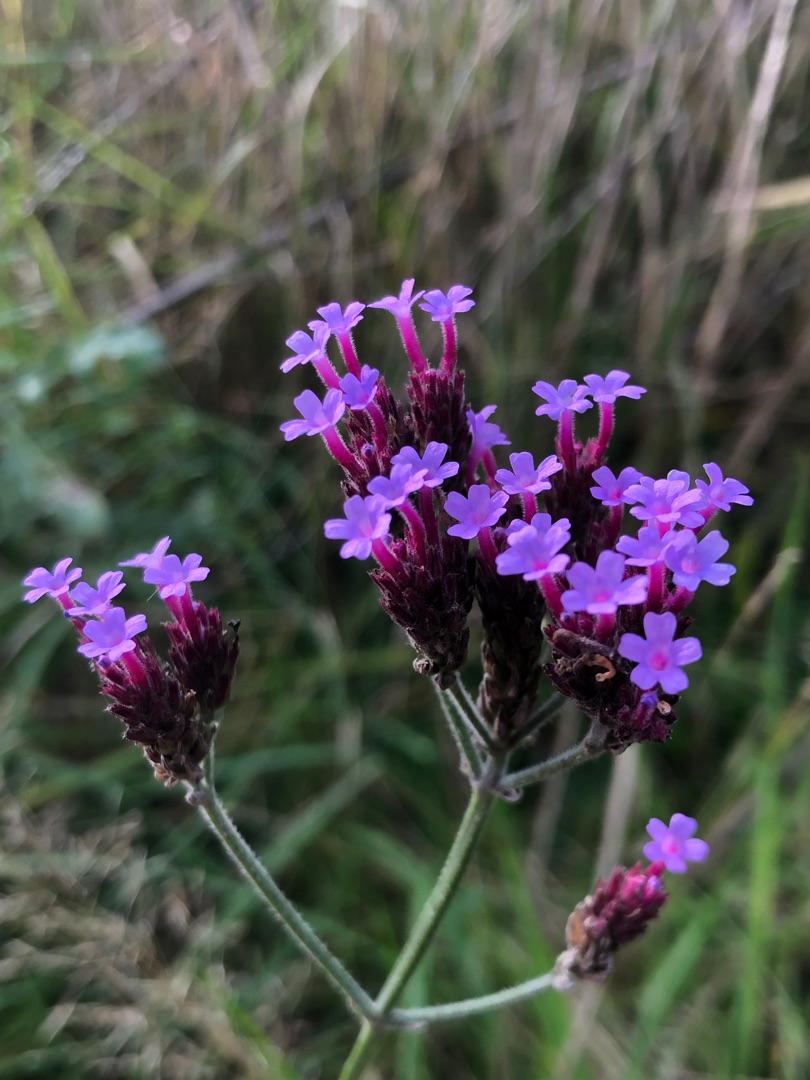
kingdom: Plantae
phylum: Tracheophyta
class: Magnoliopsida
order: Lamiales
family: Verbenaceae
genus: Verbena
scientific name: Verbena bonariensis
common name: Kæmpe-jernurt
